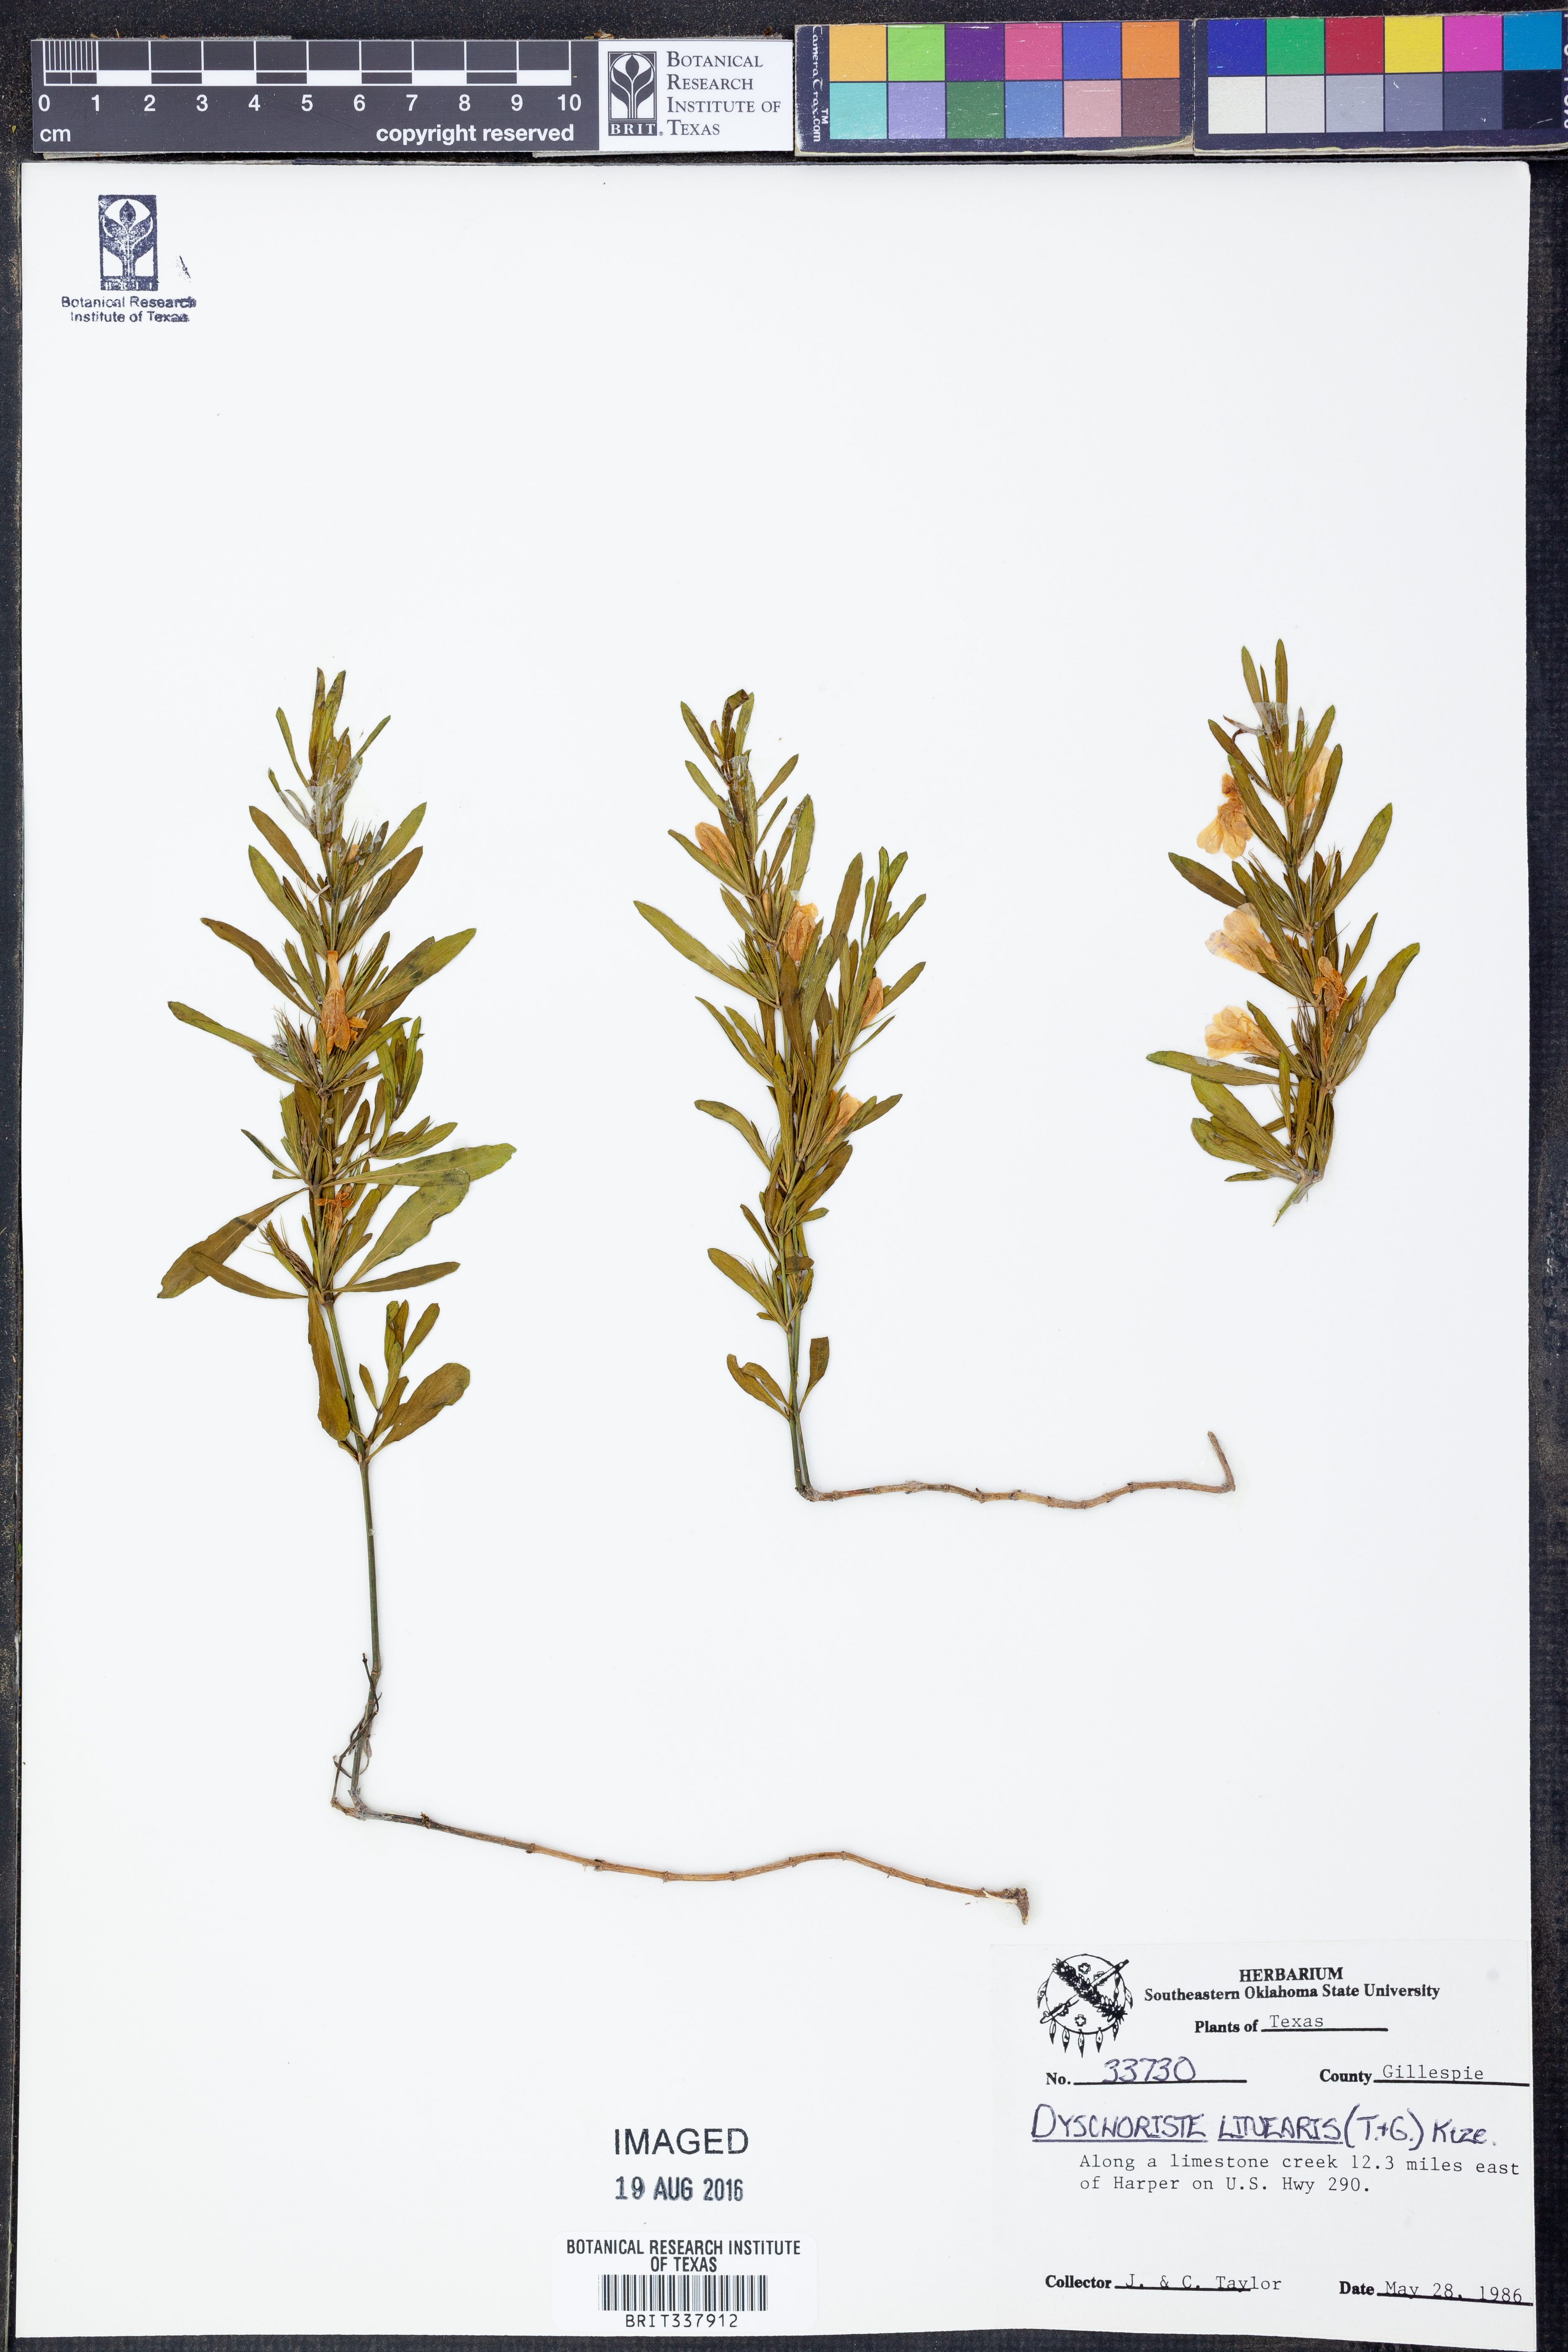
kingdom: Plantae
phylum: Tracheophyta
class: Magnoliopsida
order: Lamiales
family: Acanthaceae
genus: Dyschoriste
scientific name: Dyschoriste linearis
